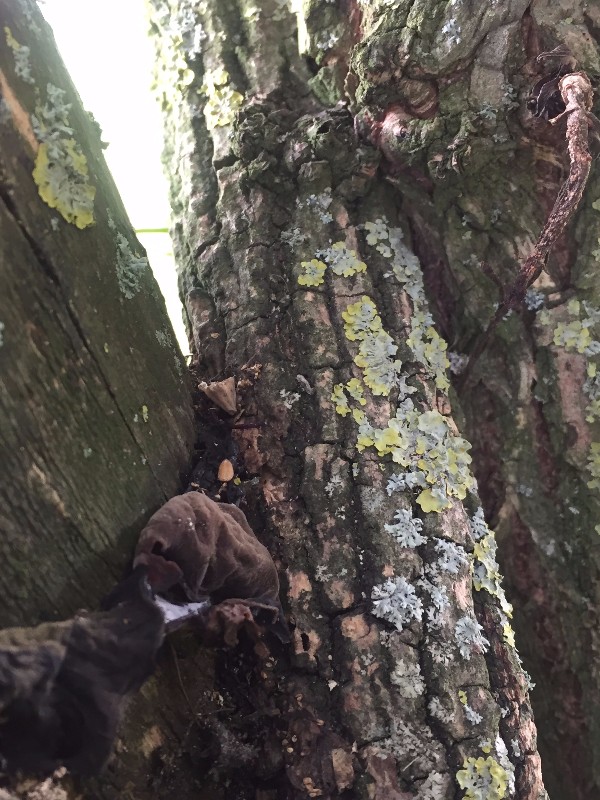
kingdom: Fungi
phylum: Basidiomycota
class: Agaricomycetes
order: Auriculariales
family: Auriculariaceae
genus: Auricularia
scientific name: Auricularia auricula-judae
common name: almindelig judasøre
